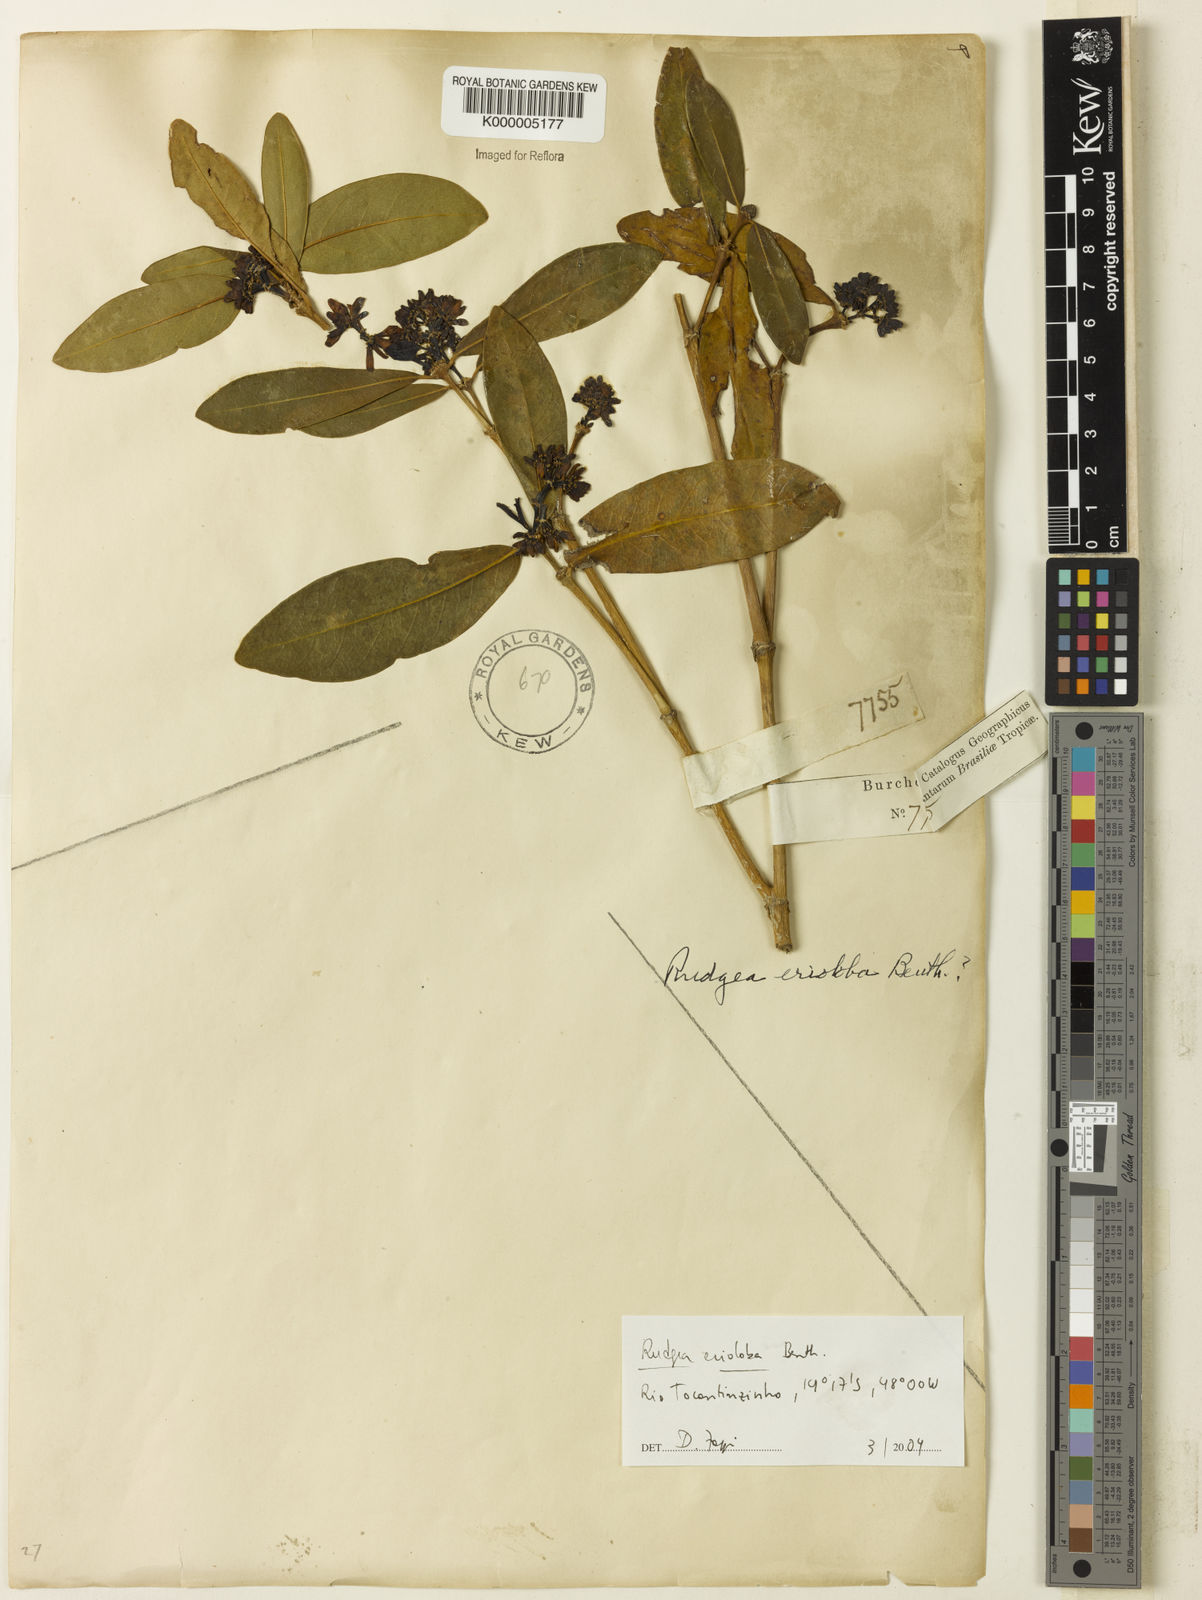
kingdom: Plantae
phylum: Tracheophyta
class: Magnoliopsida
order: Gentianales
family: Rubiaceae
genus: Rudgea
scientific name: Rudgea erioloba
